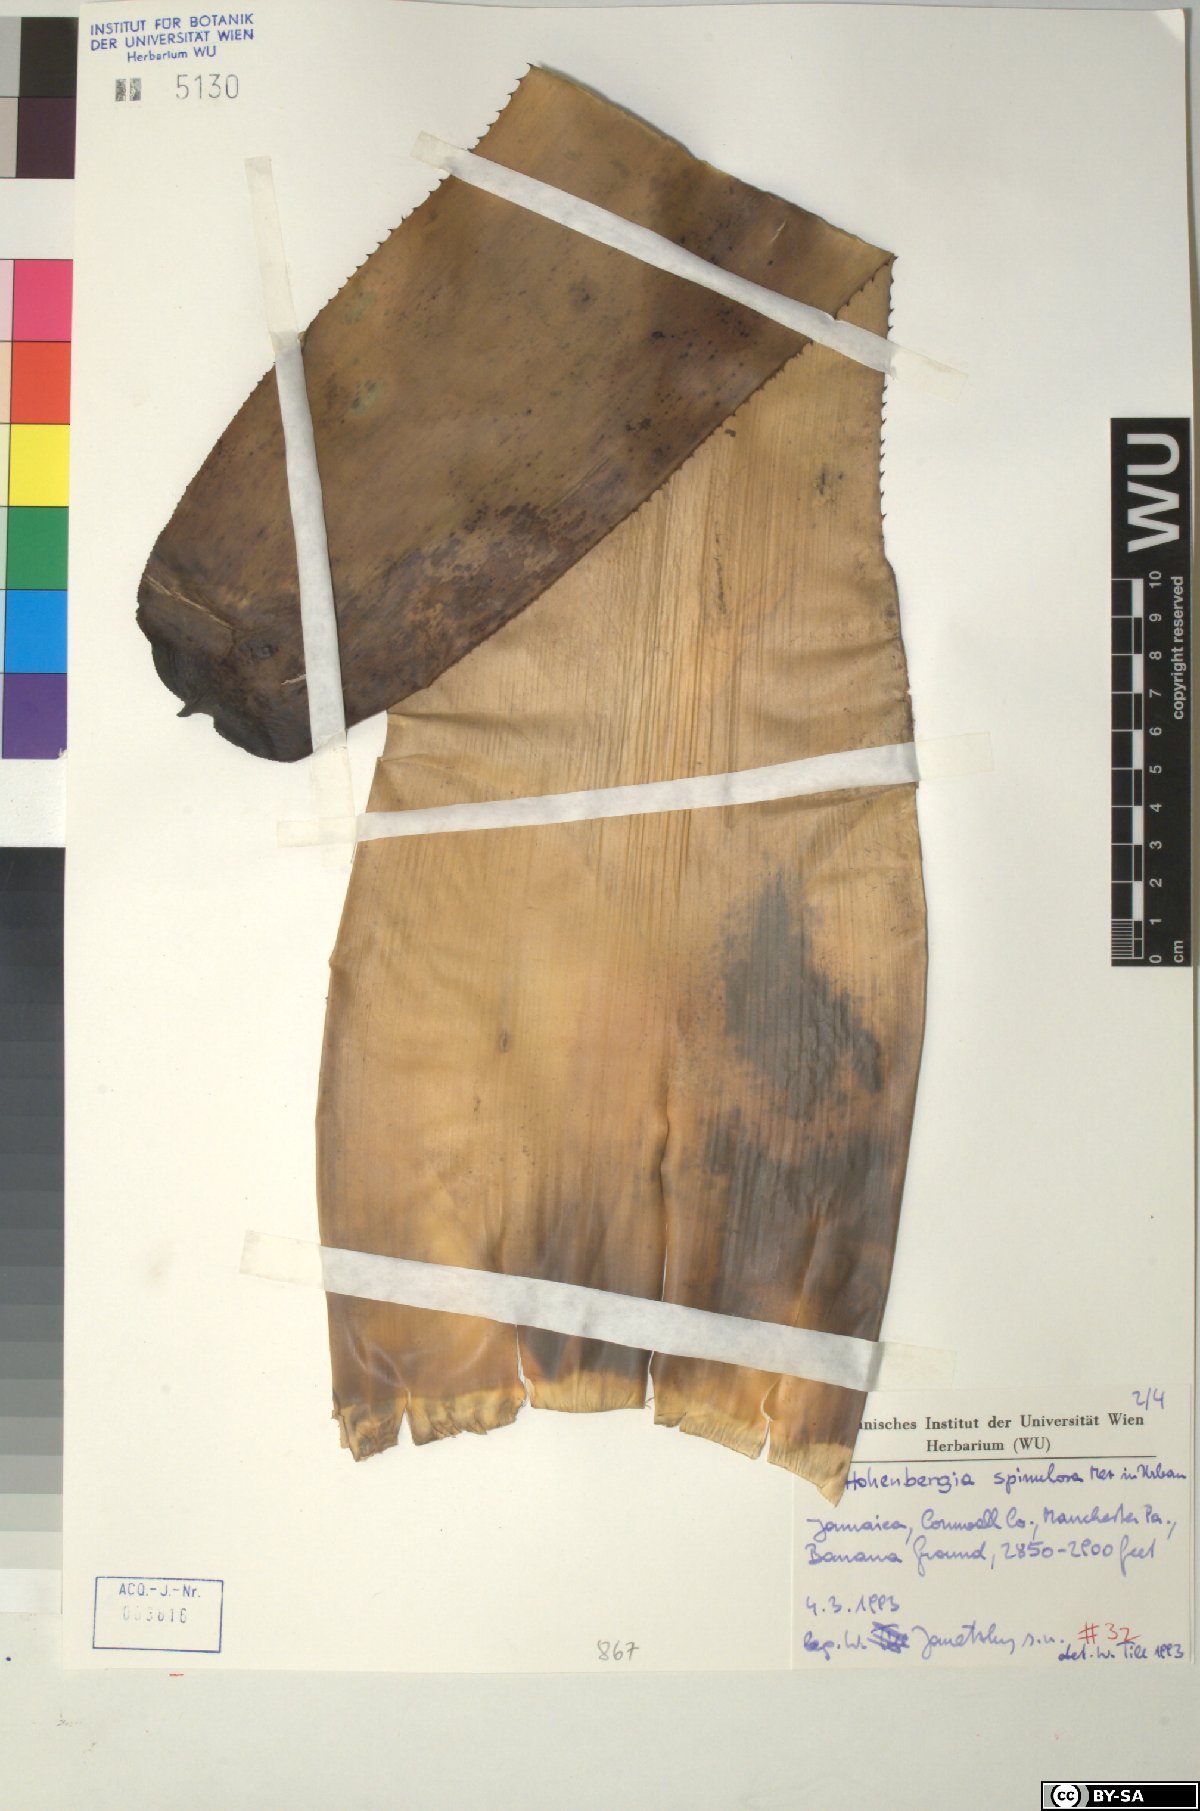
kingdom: Plantae
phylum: Tracheophyta
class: Liliopsida
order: Poales
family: Bromeliaceae
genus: Wittmackia
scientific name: Wittmackia spinulosa
